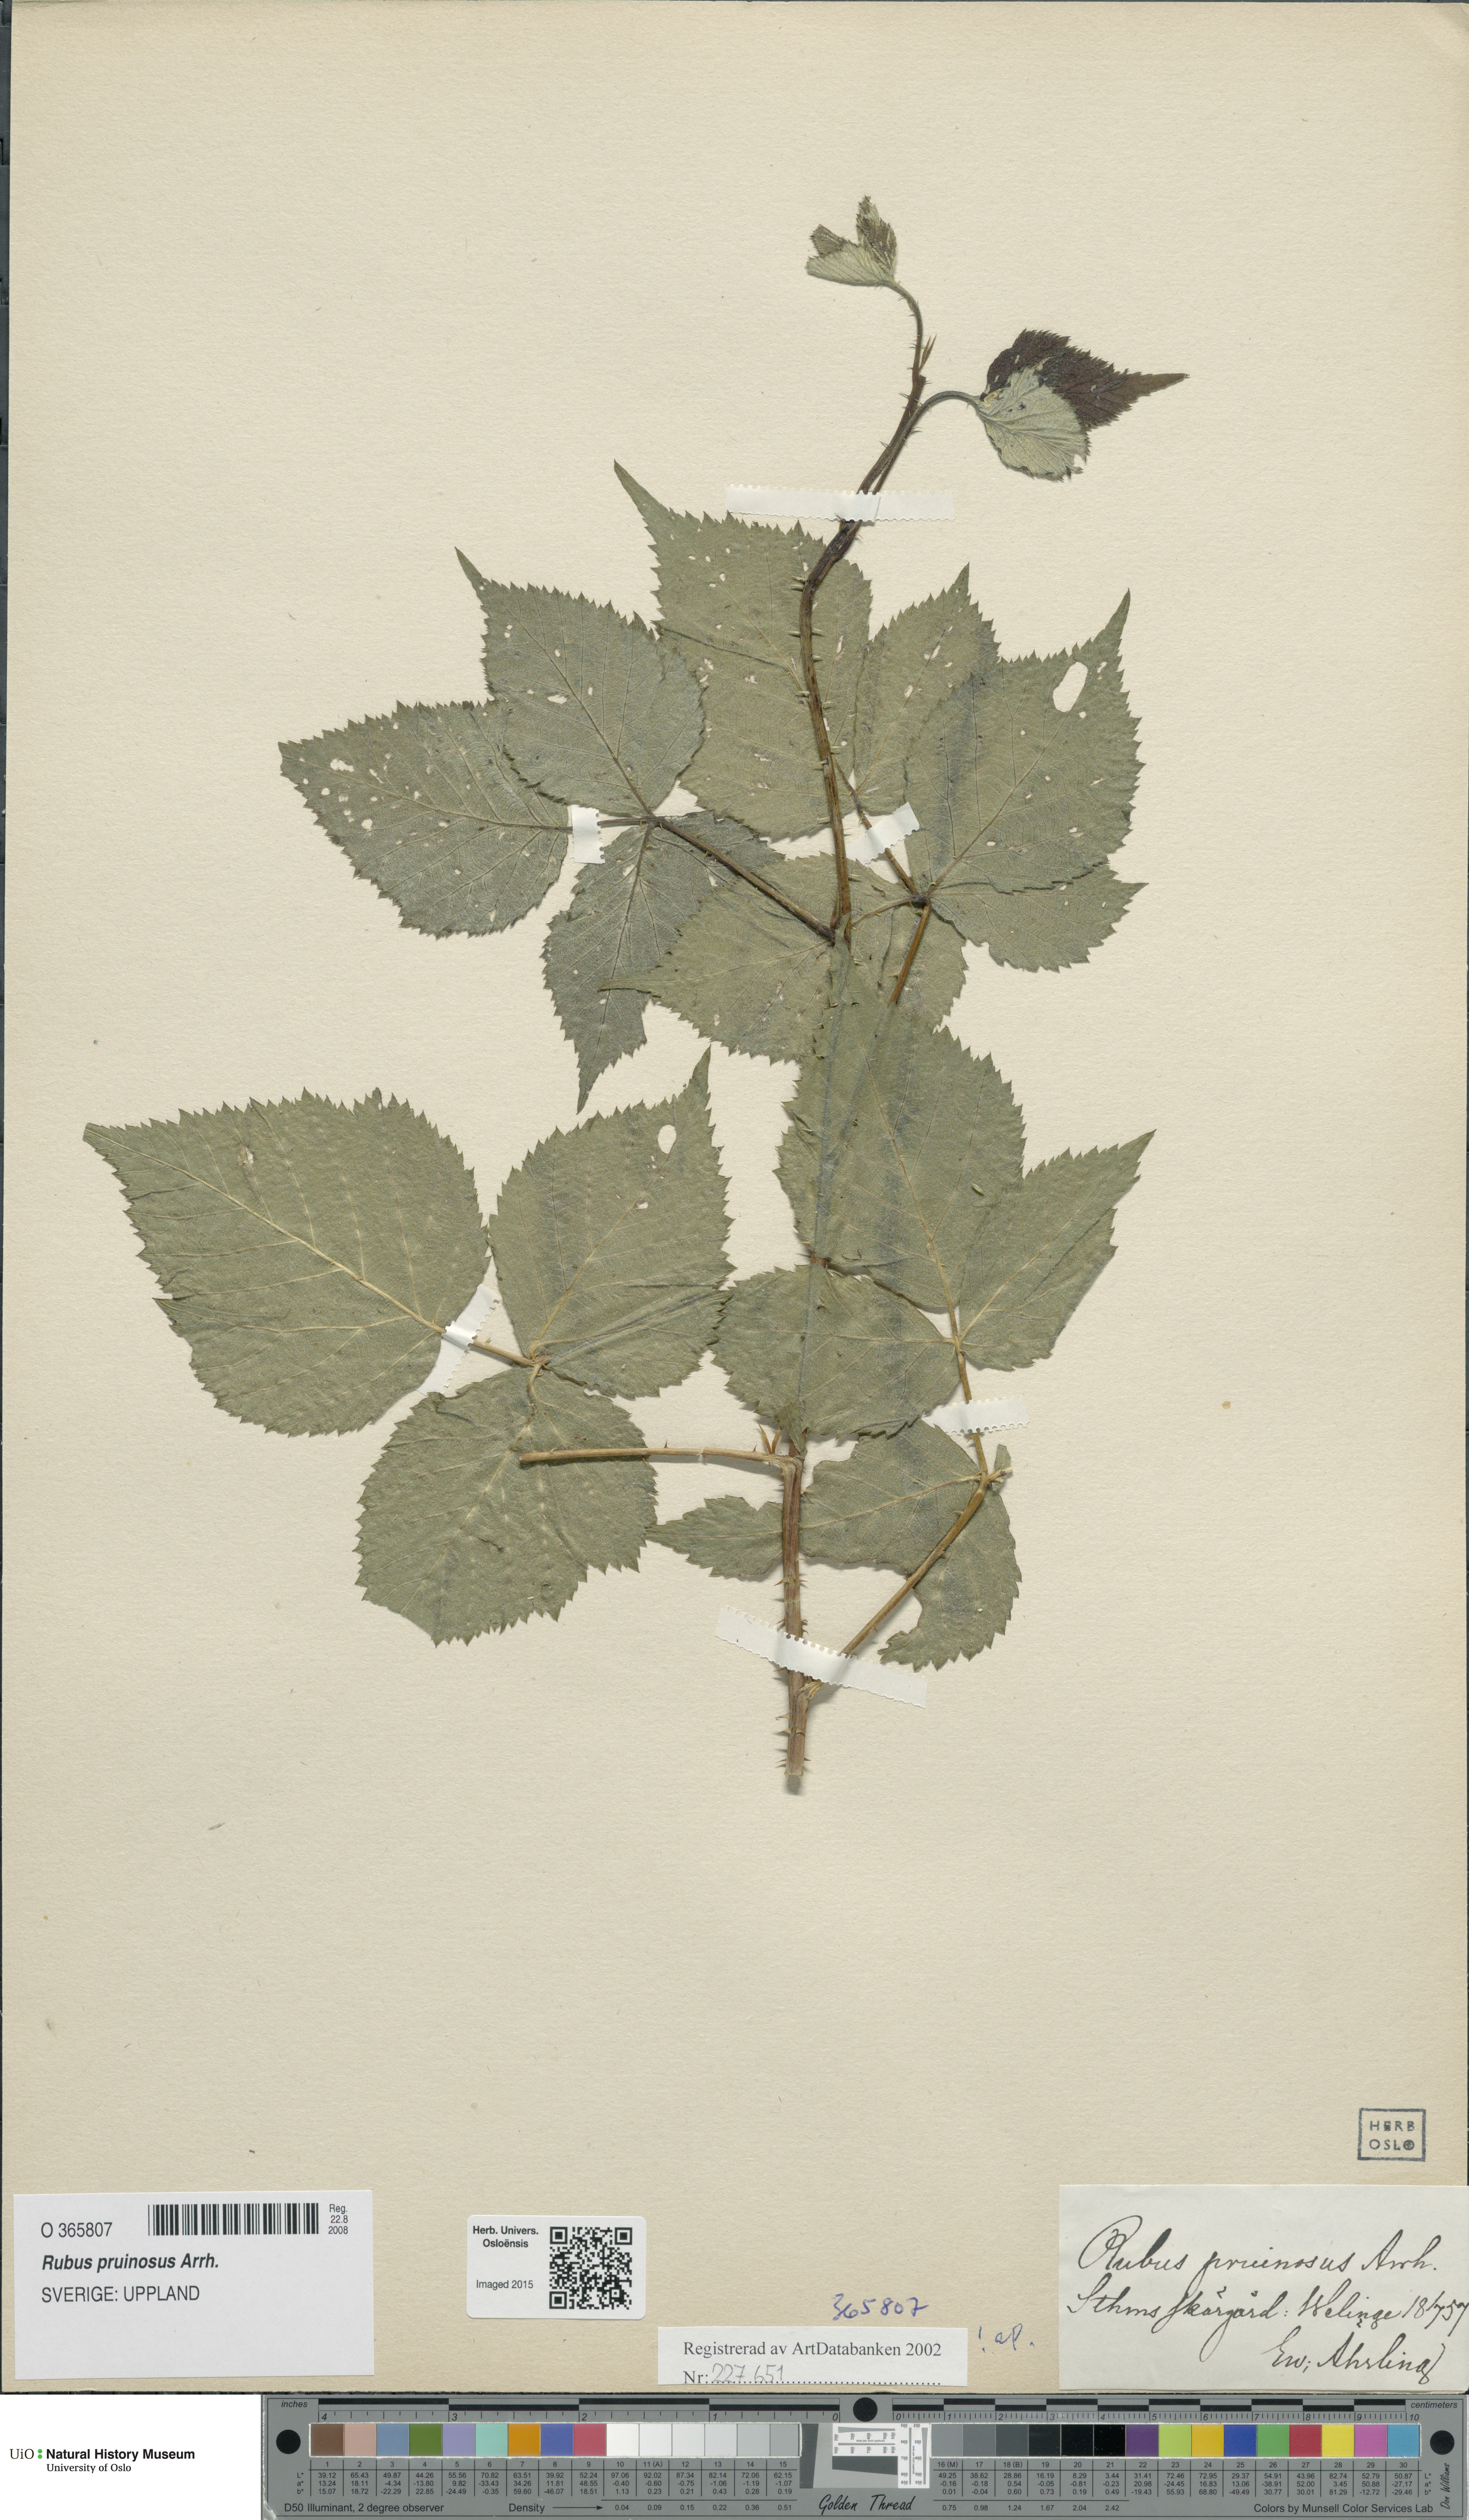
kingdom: Plantae
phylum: Tracheophyta
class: Magnoliopsida
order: Rosales
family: Rosaceae
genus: Rubus
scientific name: Rubus pruinosus
